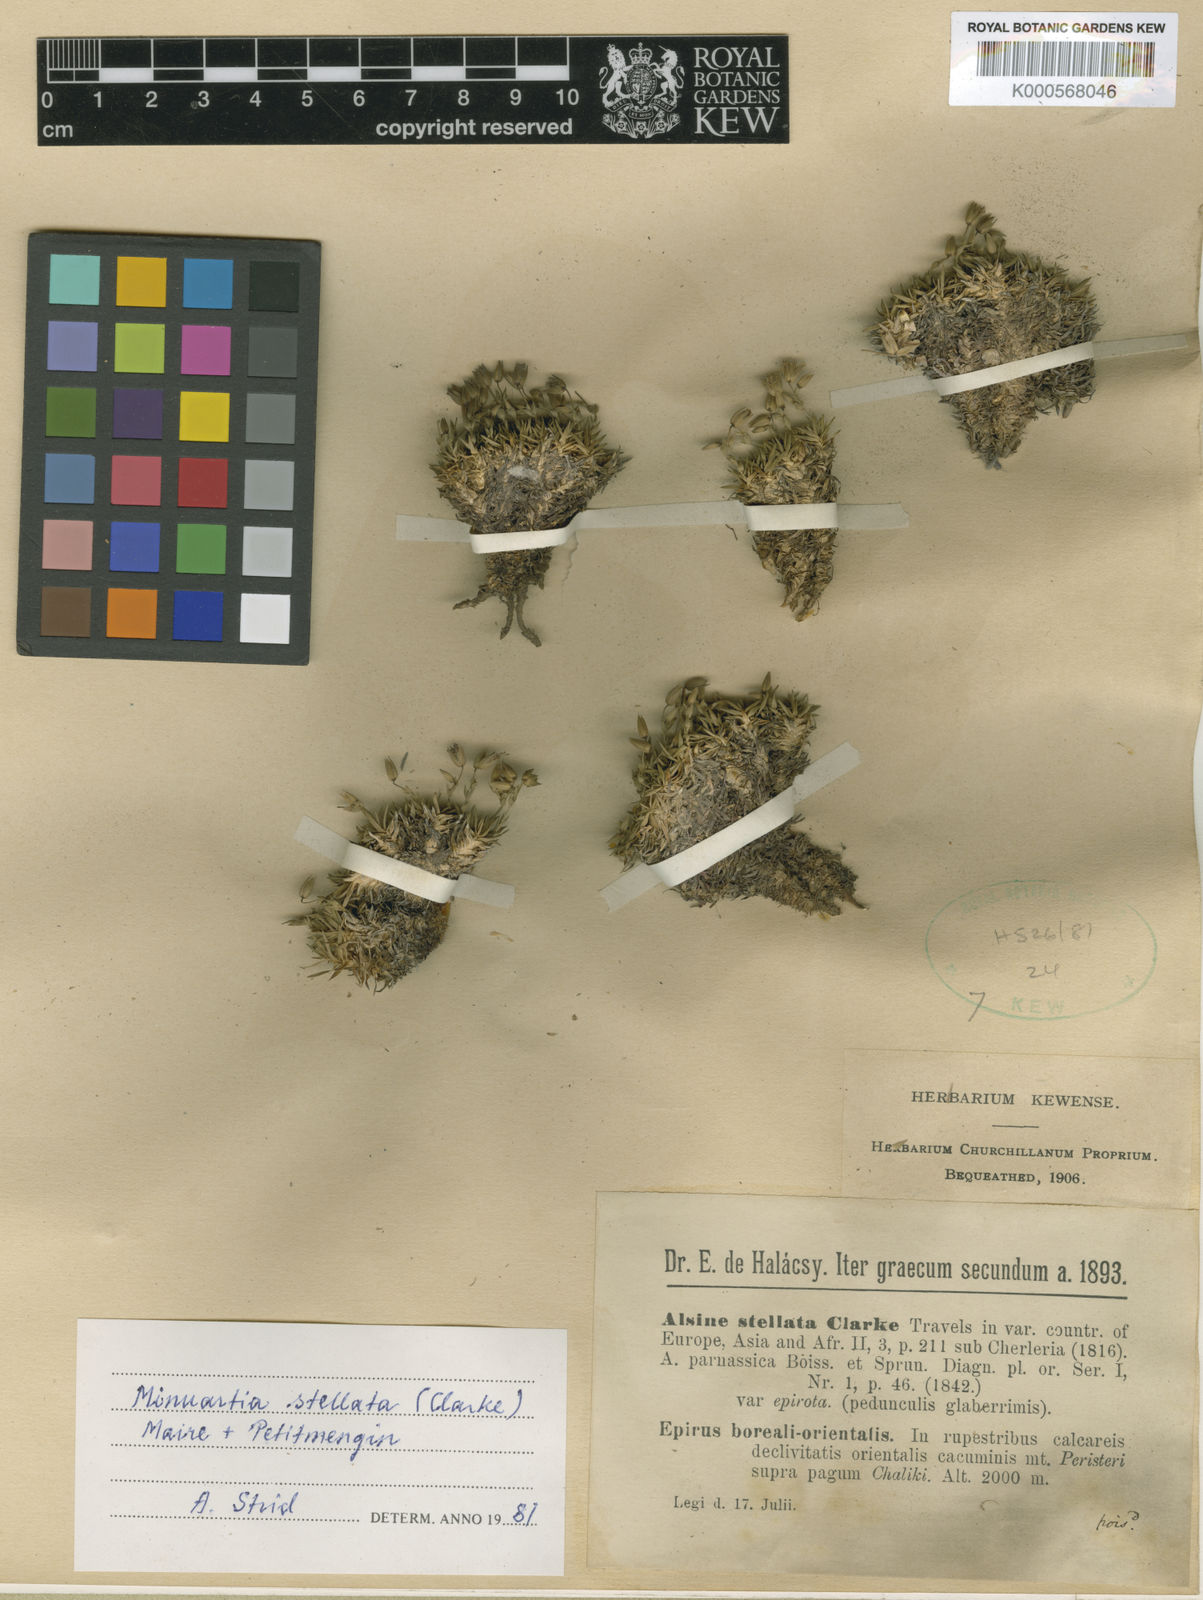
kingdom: Plantae
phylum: Tracheophyta
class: Magnoliopsida
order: Caryophyllales
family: Caryophyllaceae
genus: Mcneillia
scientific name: Mcneillia stellata
